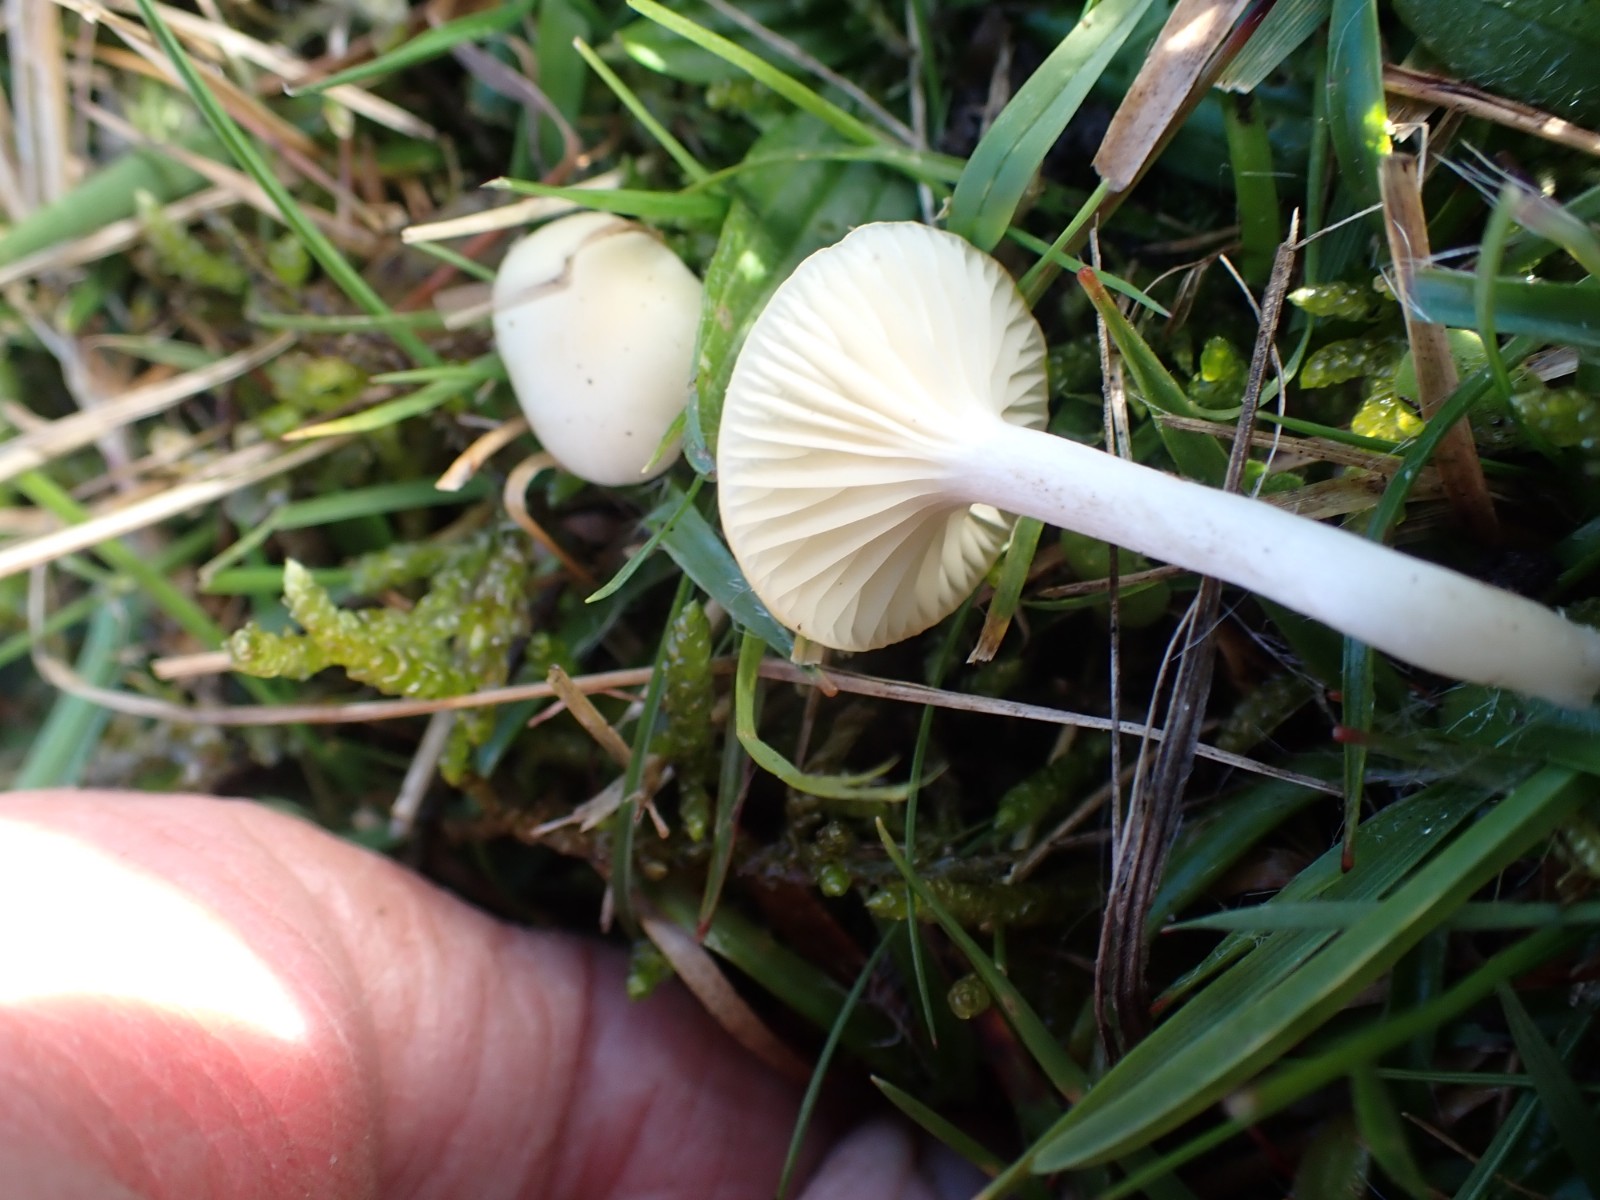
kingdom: Fungi
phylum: Basidiomycota
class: Agaricomycetes
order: Agaricales
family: Hygrophoraceae
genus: Cuphophyllus
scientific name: Cuphophyllus virgineus
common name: snehvid vokshat
